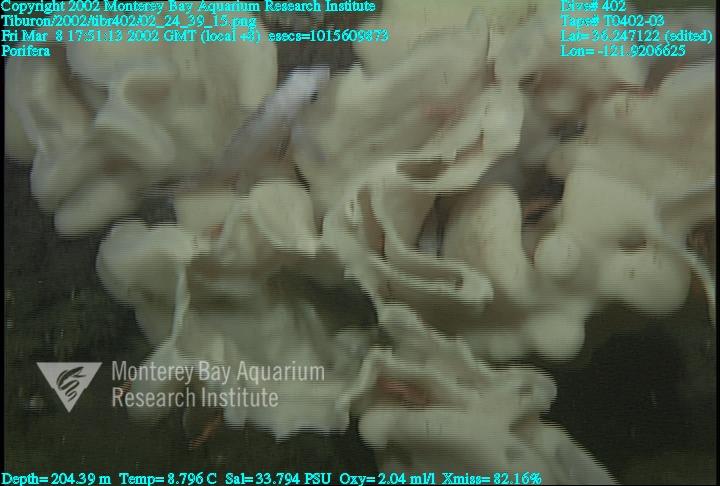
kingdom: Animalia
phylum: Porifera
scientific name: Porifera
